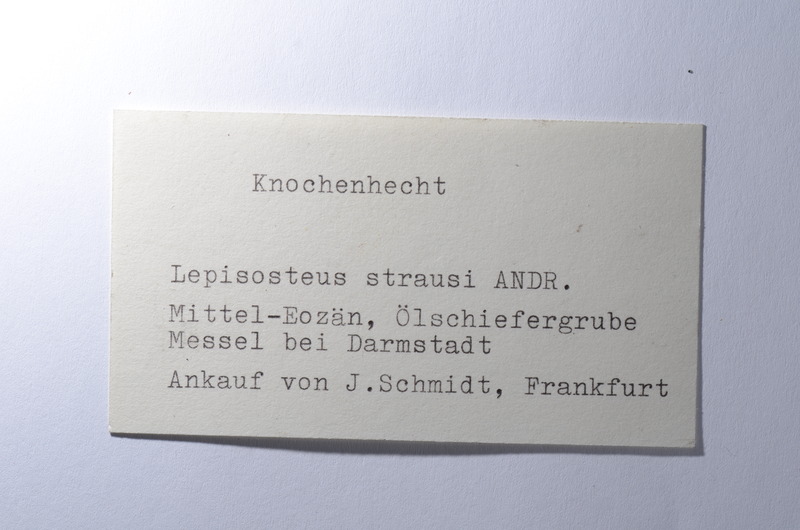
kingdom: Animalia
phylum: Chordata
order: Lepisosteiformes
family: Lepisosteidae
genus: Lepisosteus
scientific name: Lepisosteus
